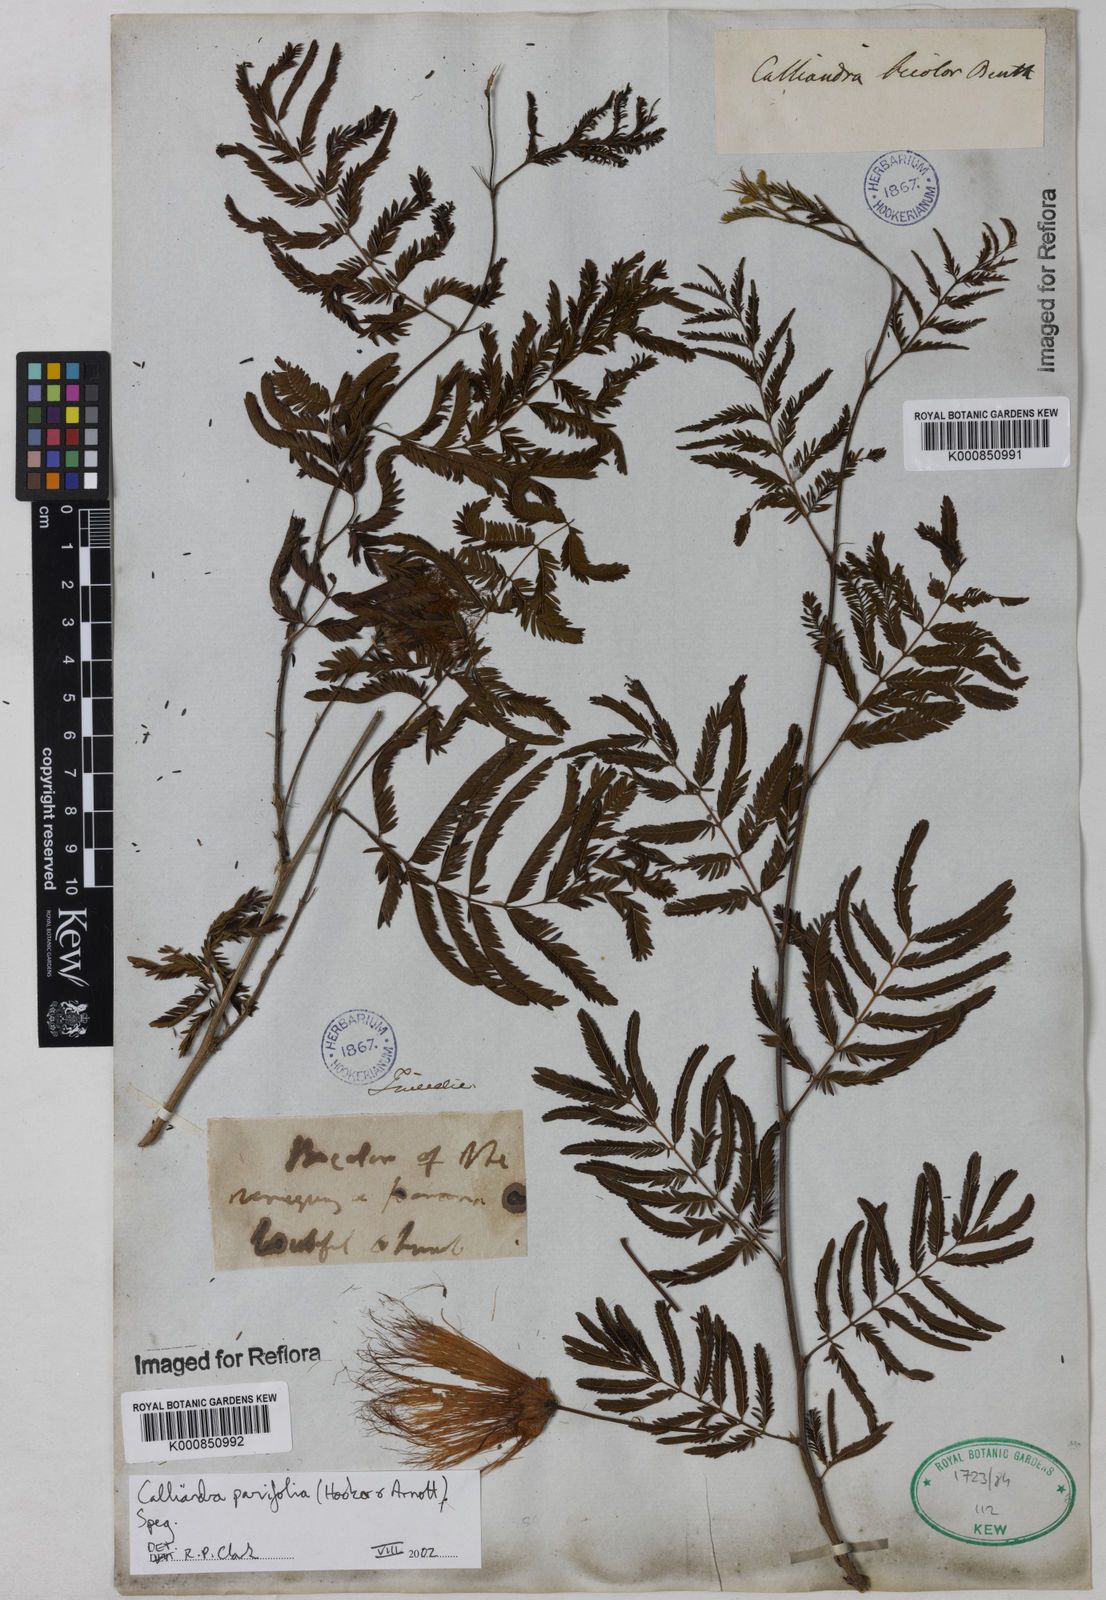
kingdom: Plantae
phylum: Tracheophyta
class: Magnoliopsida
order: Fabales
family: Fabaceae
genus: Calliandra
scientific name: Calliandra parvifolia
